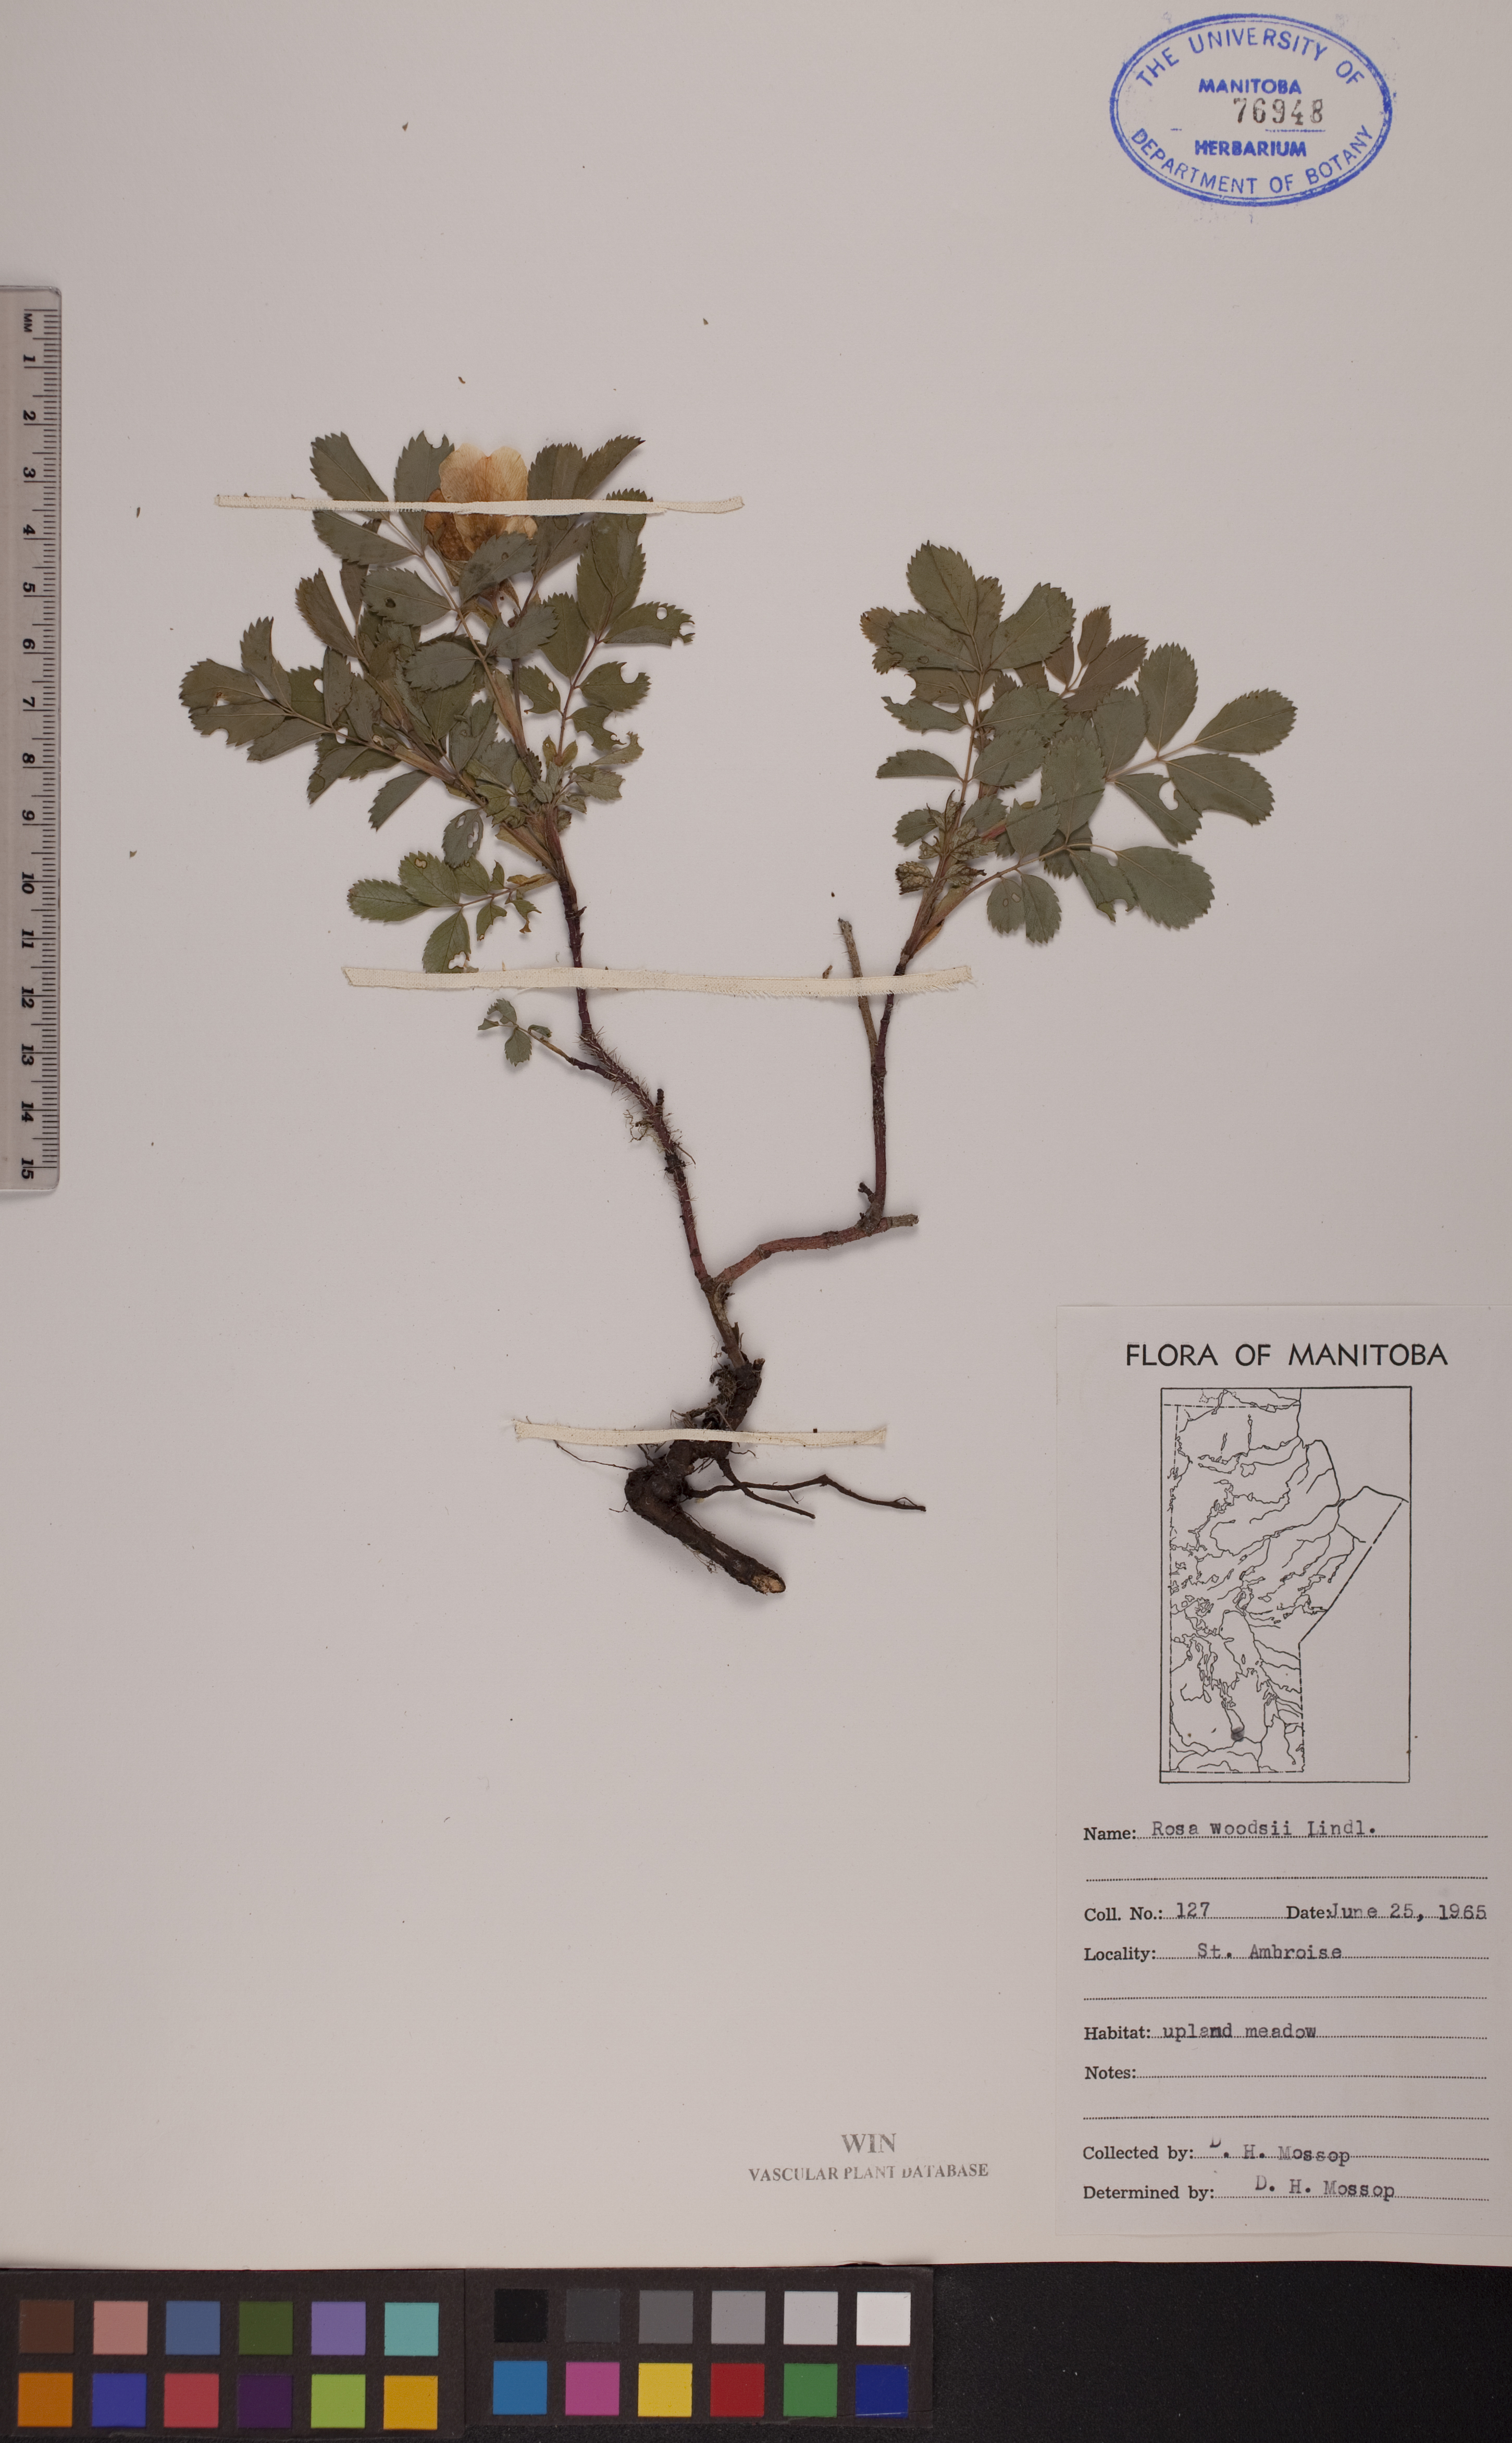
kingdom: Plantae
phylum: Tracheophyta
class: Magnoliopsida
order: Rosales
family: Rosaceae
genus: Rosa
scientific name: Rosa woodsii
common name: Woods's rose
